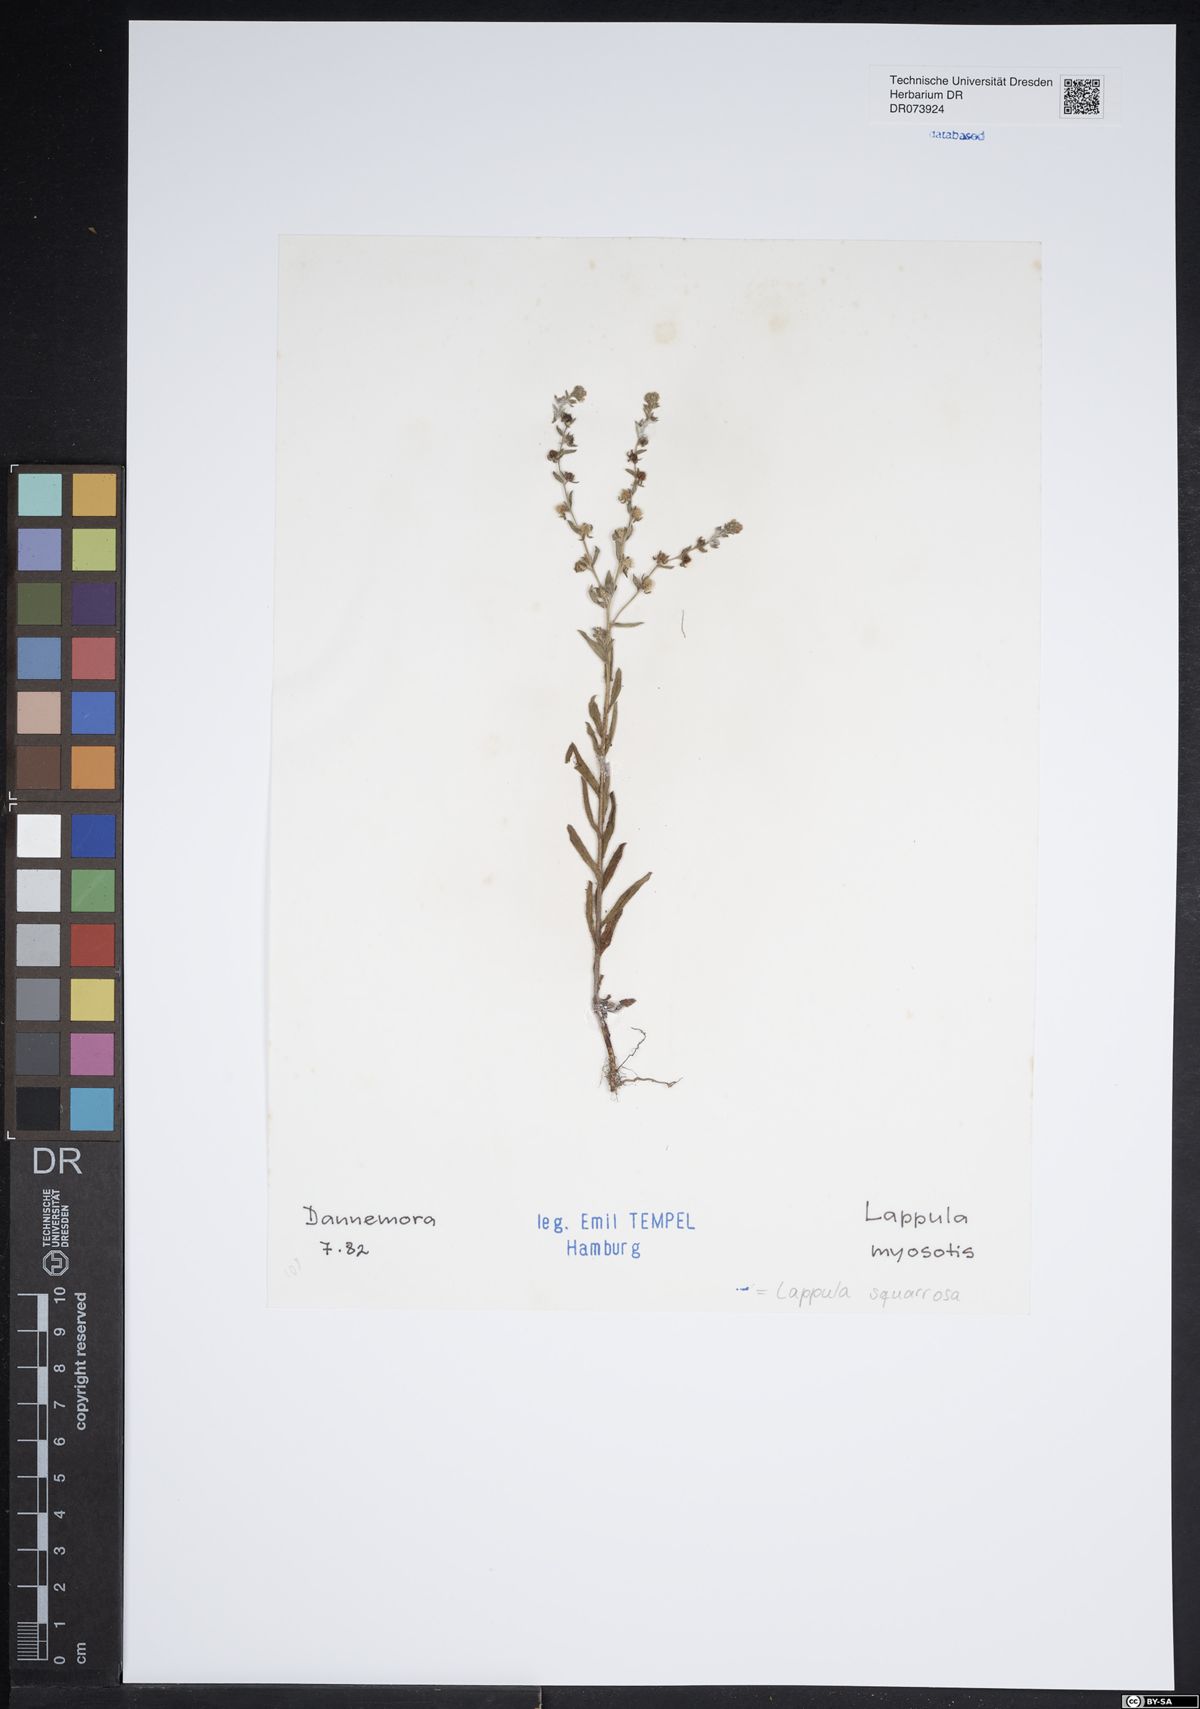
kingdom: Plantae
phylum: Tracheophyta
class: Magnoliopsida
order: Boraginales
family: Boraginaceae
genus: Lappula
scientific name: Lappula squarrosa
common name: European stickseed
